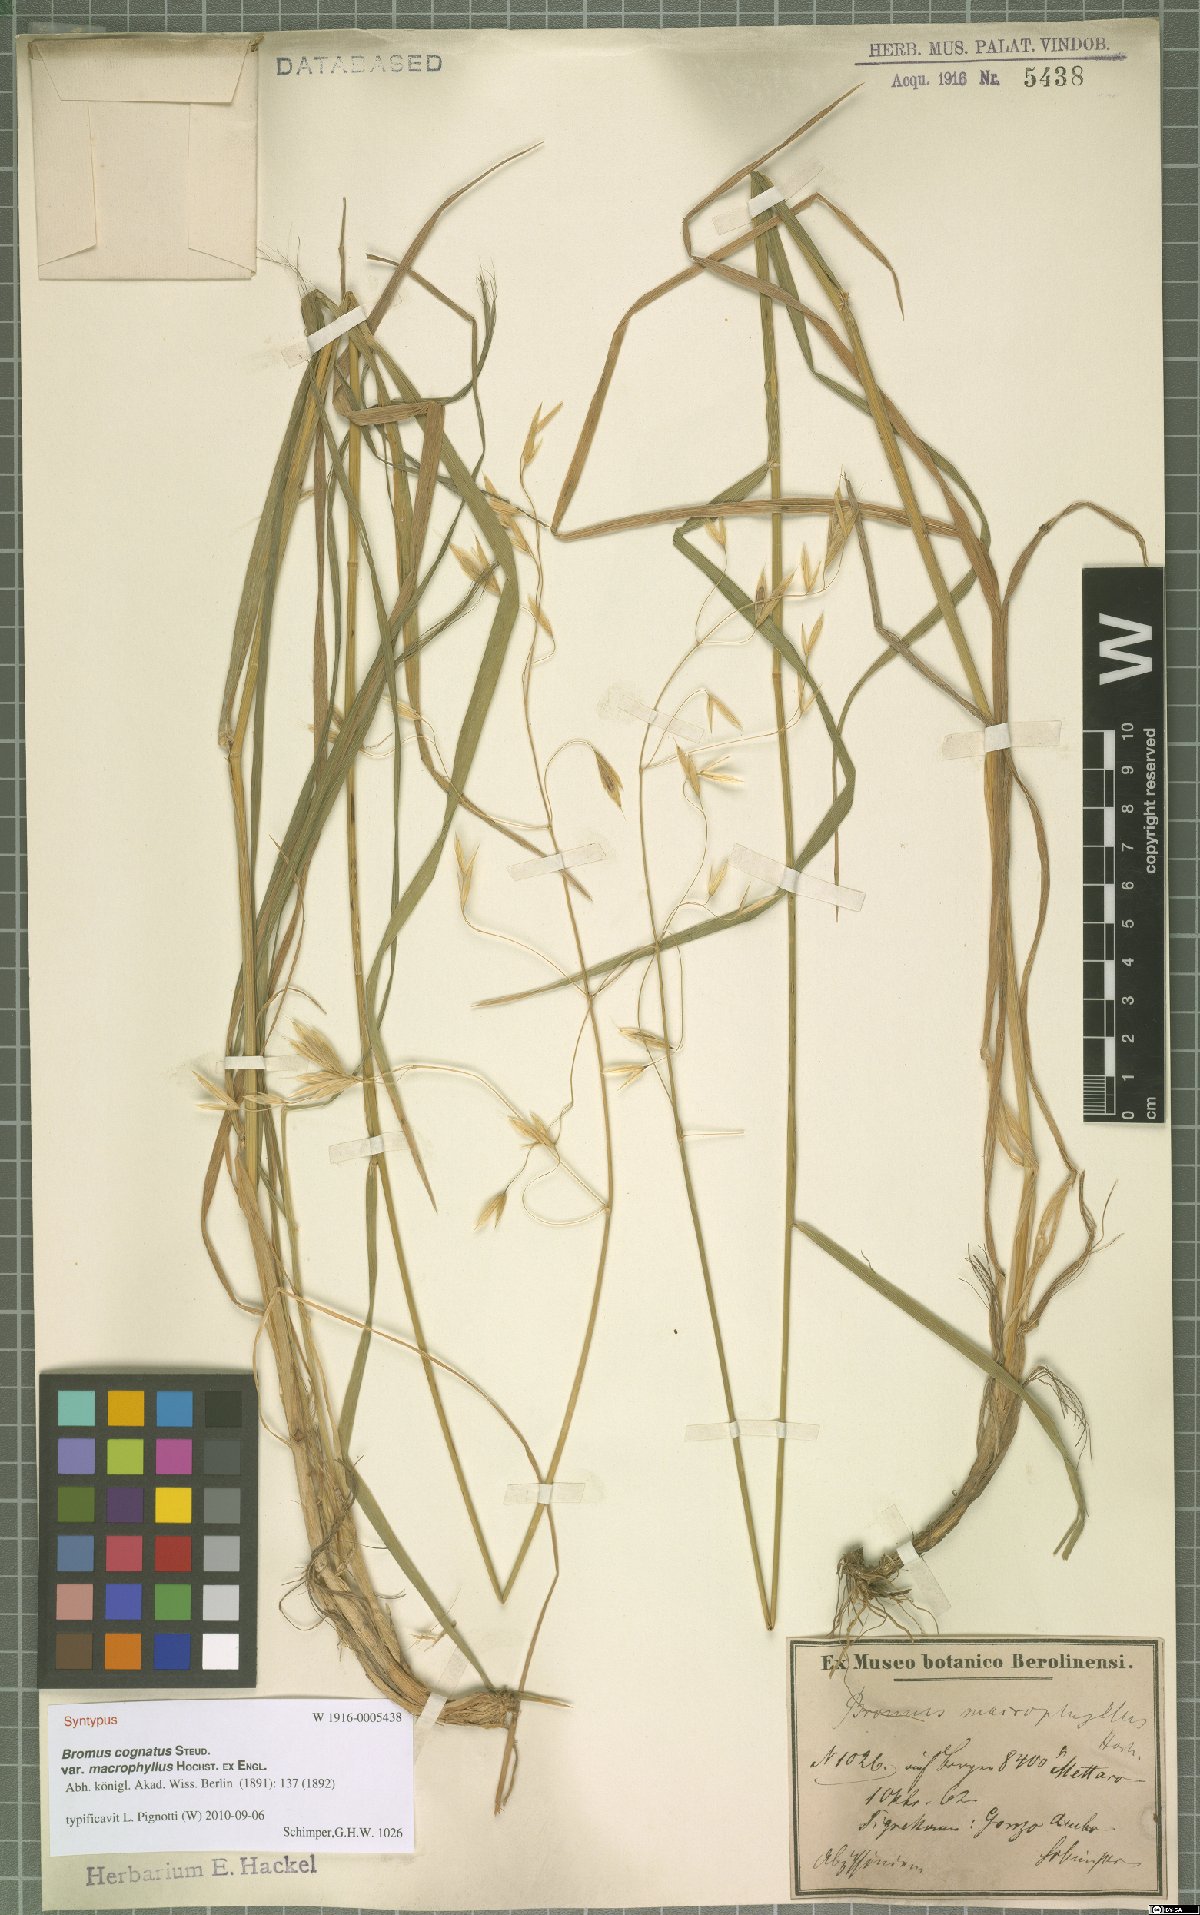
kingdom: Plantae
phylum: Tracheophyta
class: Liliopsida
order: Poales
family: Poaceae
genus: Bromus
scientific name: Bromus leptoclados
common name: Mountain bromegrass
